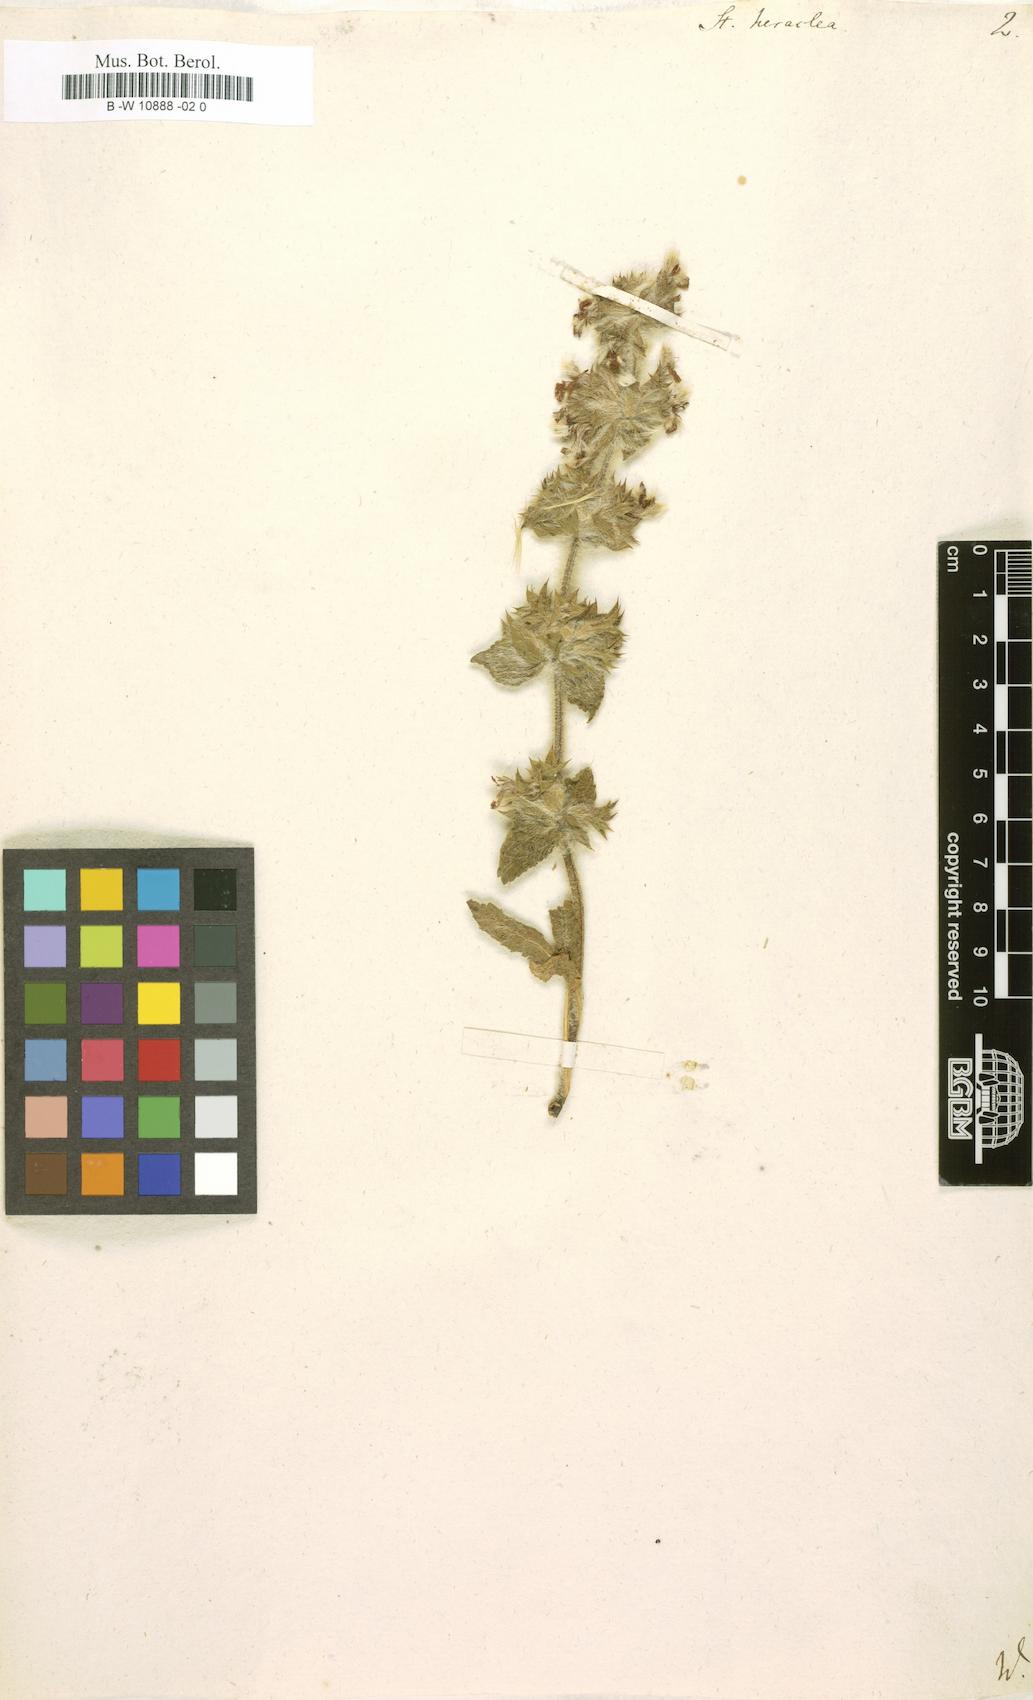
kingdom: Plantae
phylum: Tracheophyta
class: Magnoliopsida
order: Lamiales
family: Lamiaceae
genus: Stachys
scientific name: Stachys heraclea
